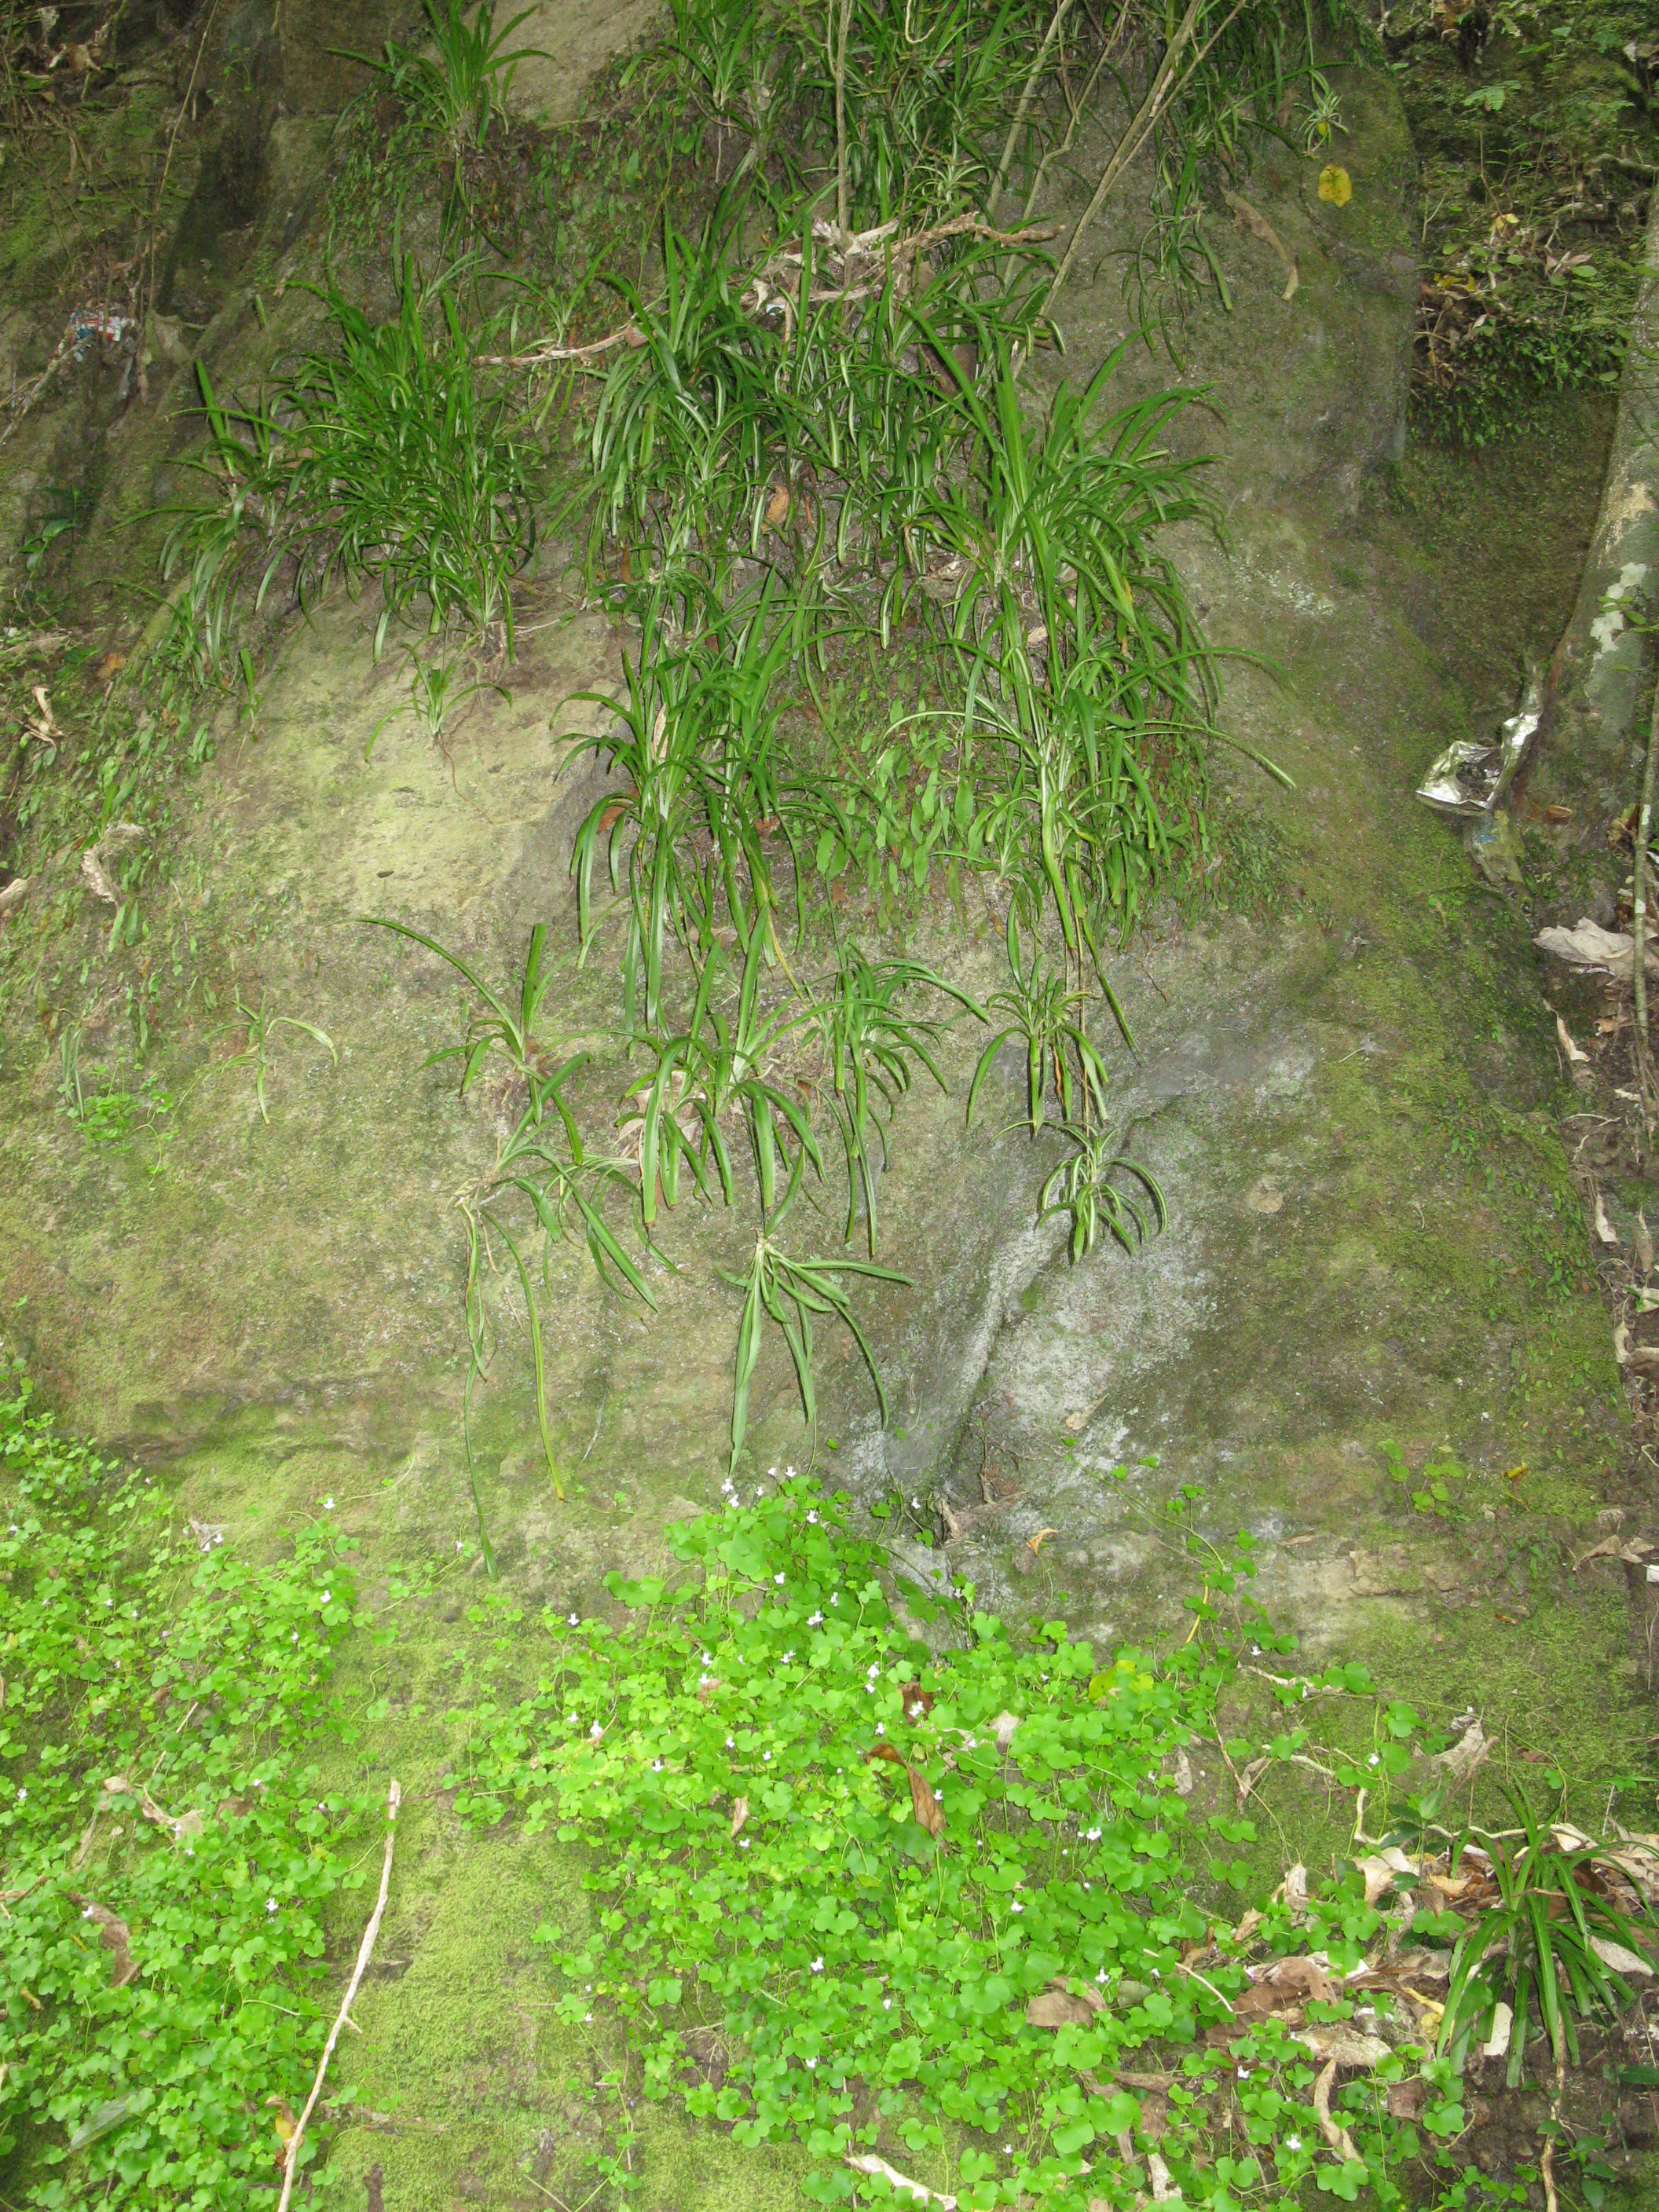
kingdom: Plantae
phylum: Tracheophyta
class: Liliopsida
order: Asparagales
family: Asparagaceae
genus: Chlorophytum
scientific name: Chlorophytum comosum
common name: Spider plant
